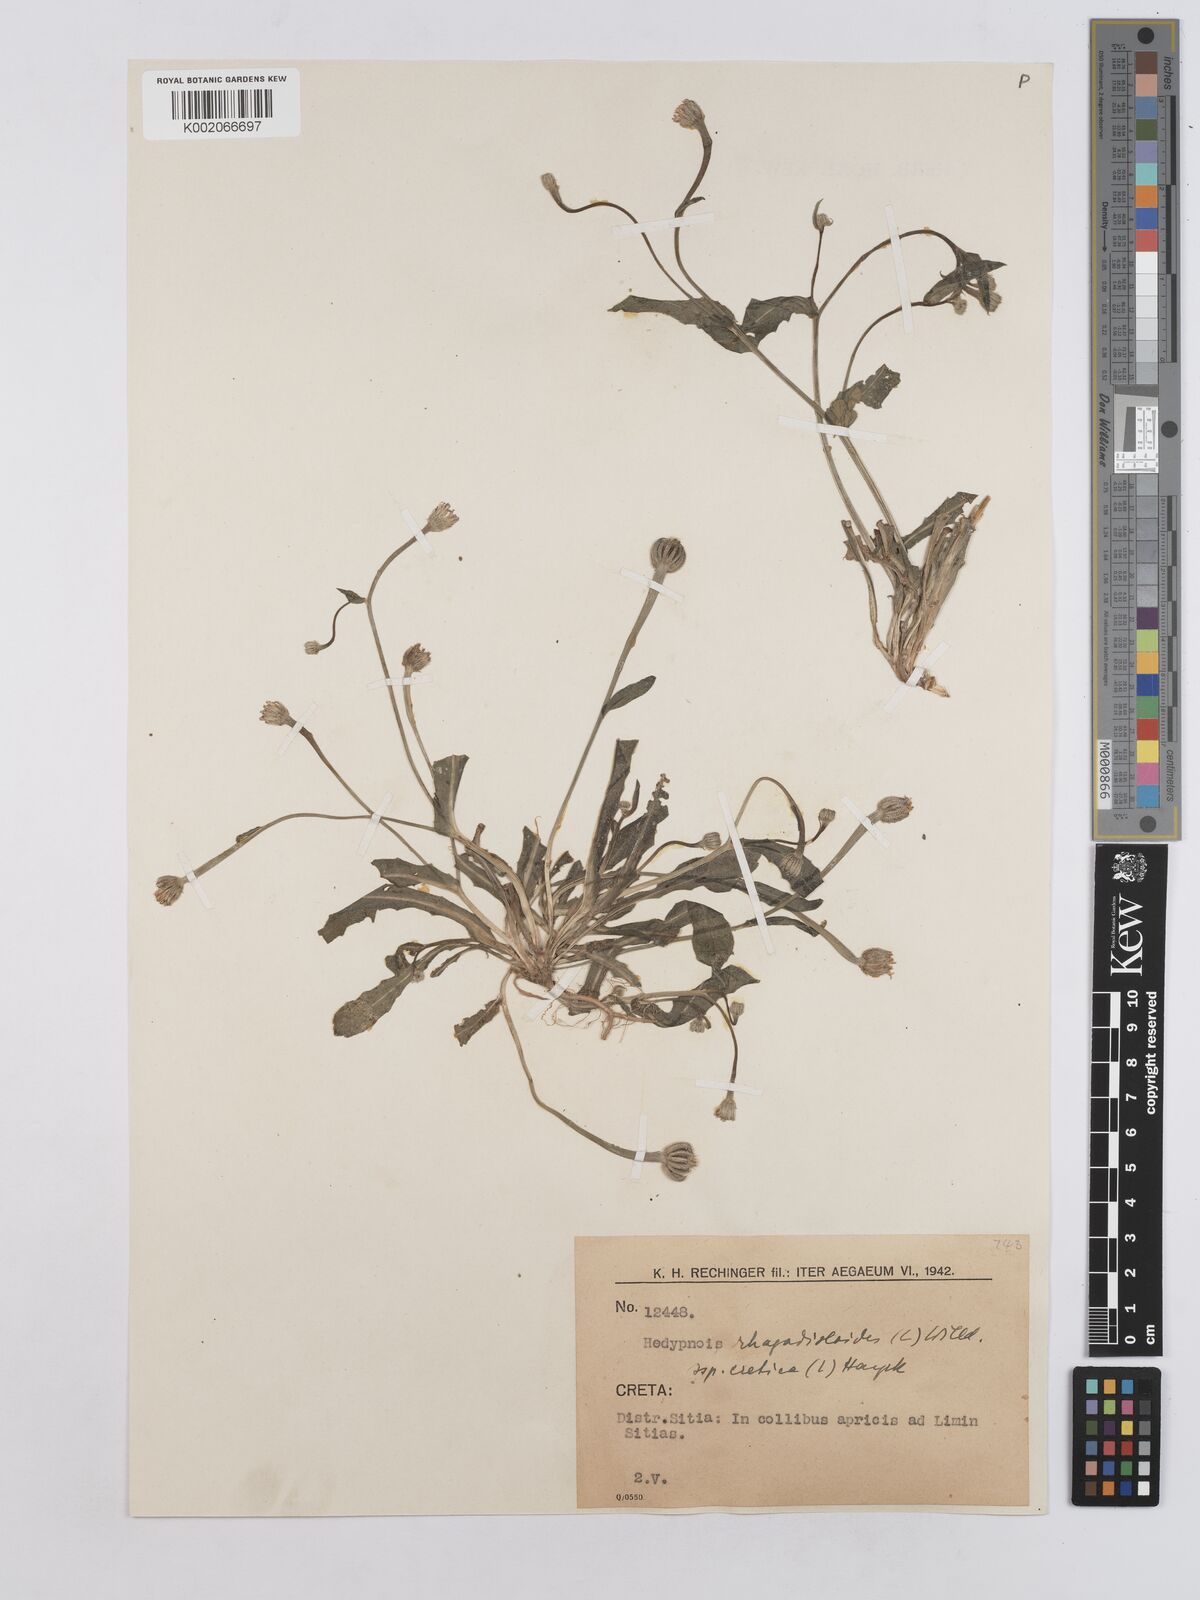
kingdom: Plantae
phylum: Tracheophyta
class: Magnoliopsida
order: Asterales
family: Asteraceae
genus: Hedypnois
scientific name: Hedypnois rhagadioloides
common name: Cretan weed
